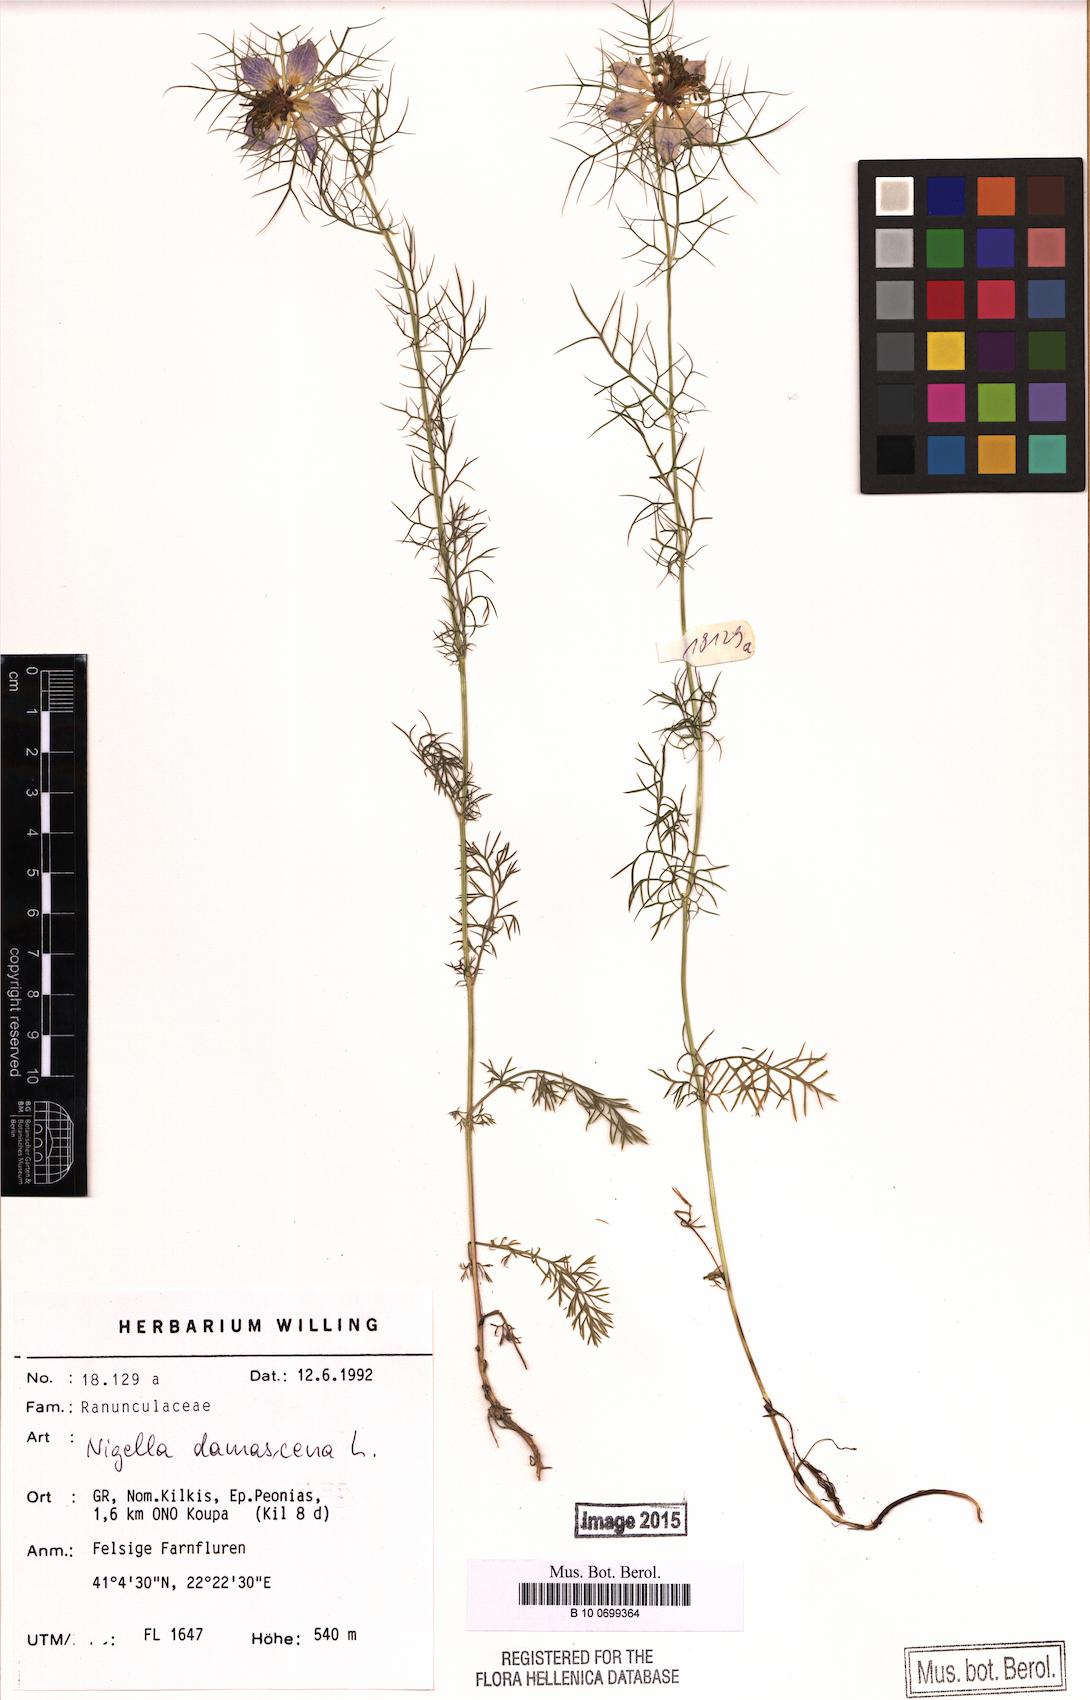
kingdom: Plantae
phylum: Tracheophyta
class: Magnoliopsida
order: Ranunculales
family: Ranunculaceae
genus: Nigella
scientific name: Nigella damascena
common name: Love-in-a-mist
